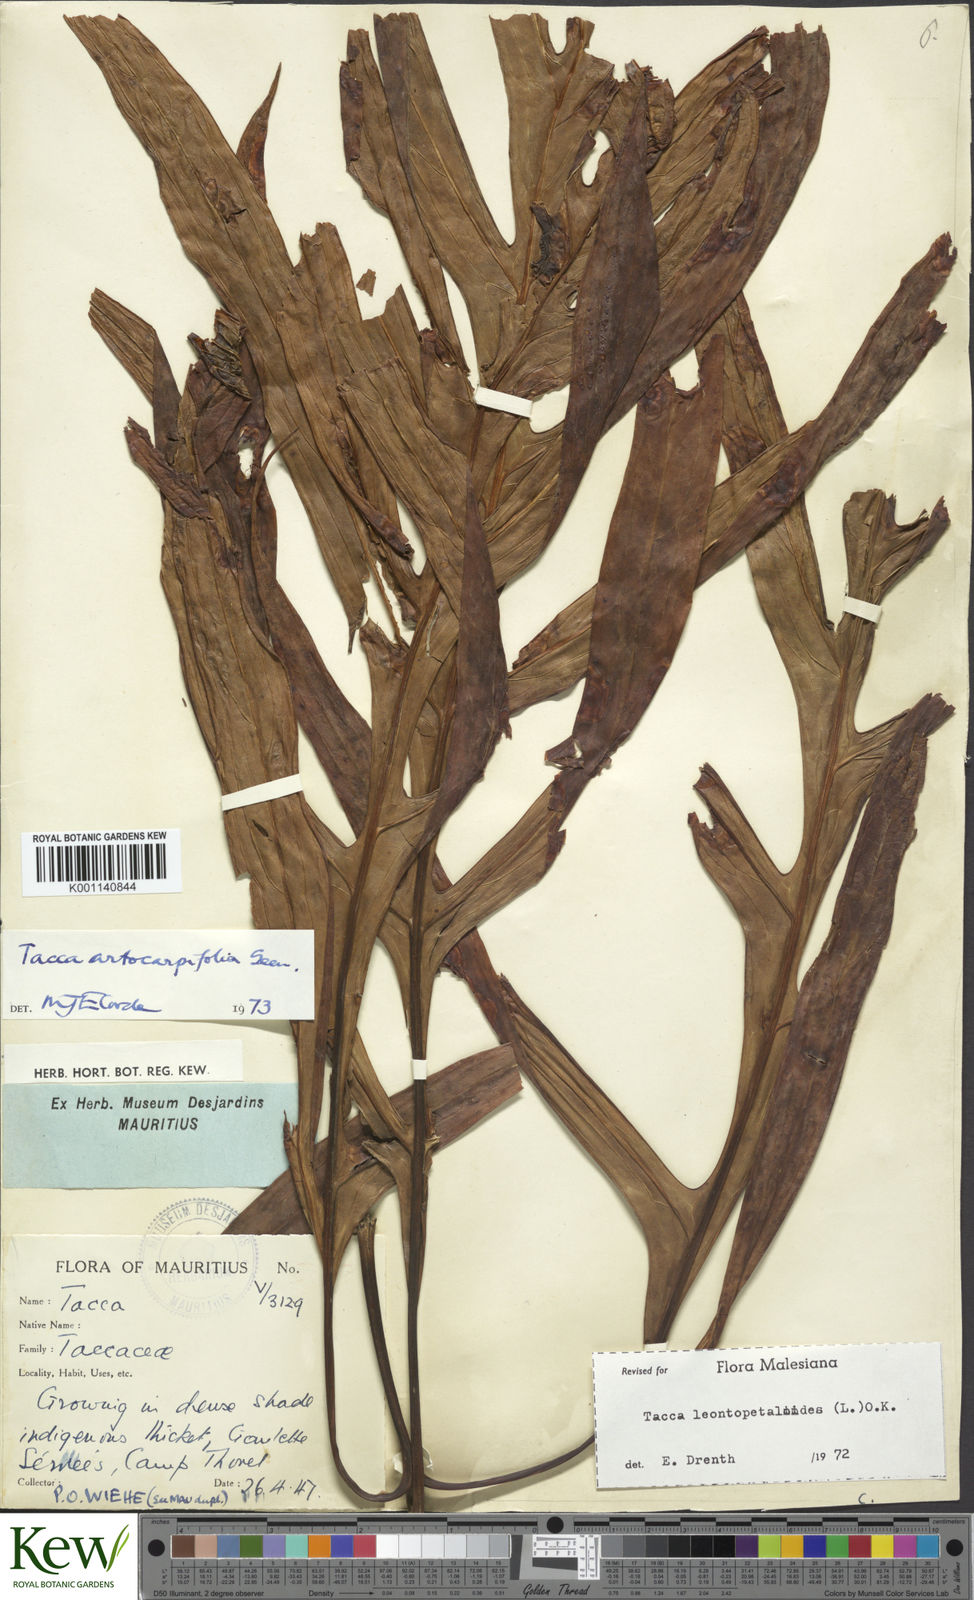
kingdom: Plantae
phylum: Tracheophyta
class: Liliopsida
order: Dioscoreales
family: Dioscoreaceae
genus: Tacca
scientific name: Tacca leontopetaloides
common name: Arrowroot
